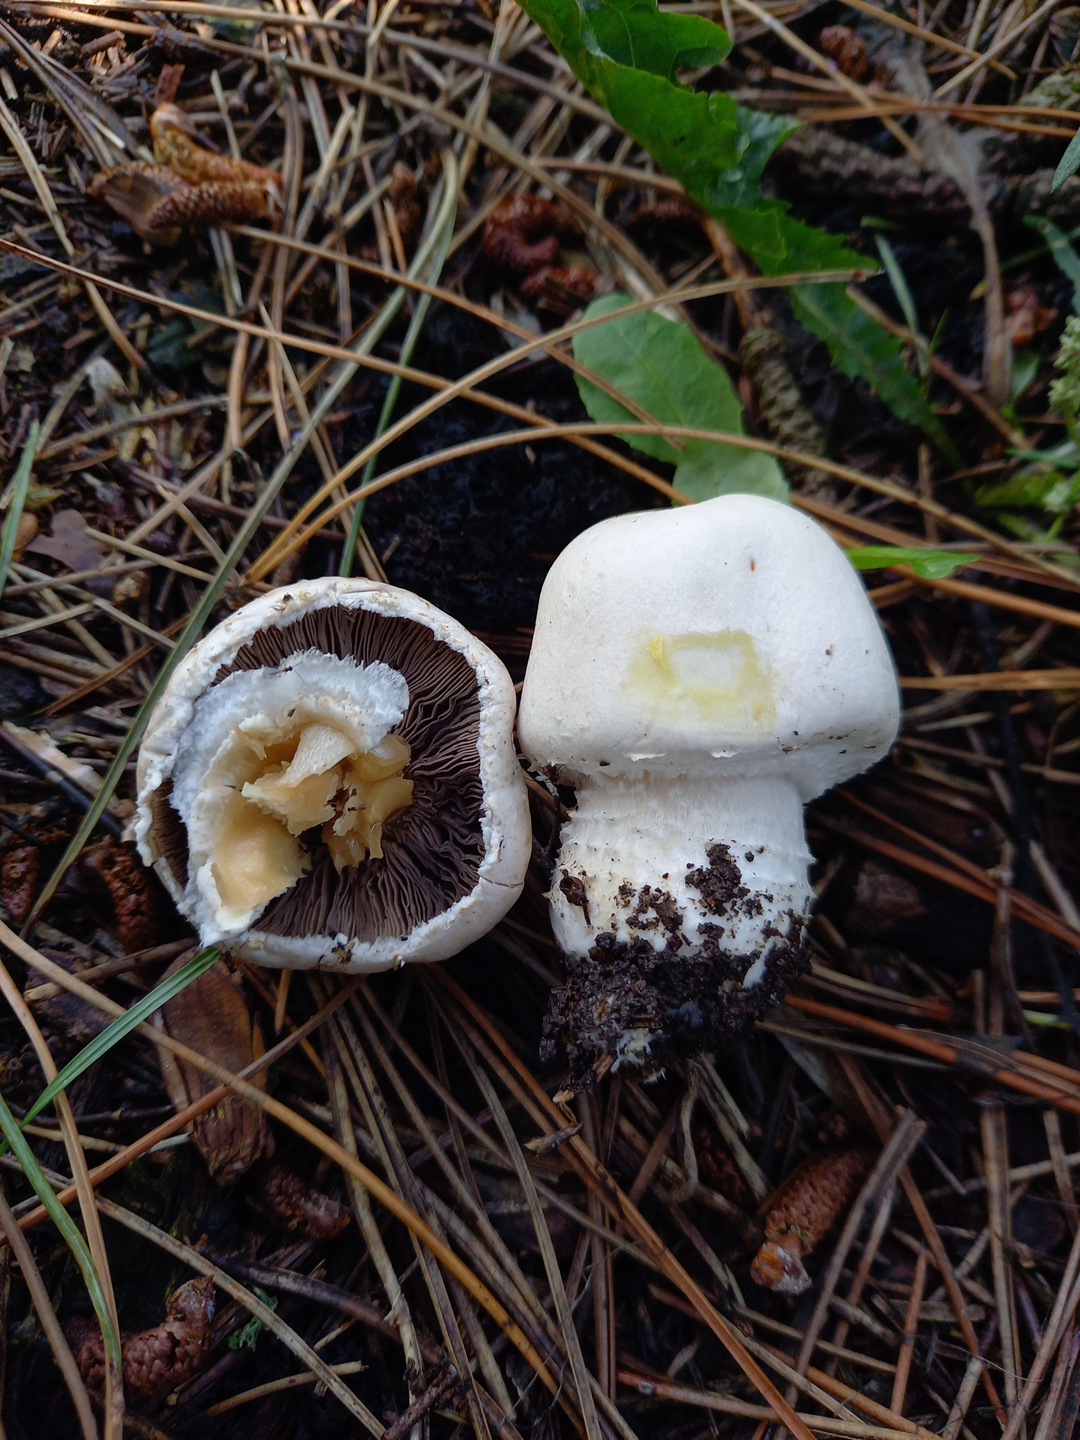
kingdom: Fungi
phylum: Basidiomycota
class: Agaricomycetes
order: Agaricales
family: Agaricaceae
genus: Agaricus
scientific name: Agaricus xanthodermus
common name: karbol-champignon
